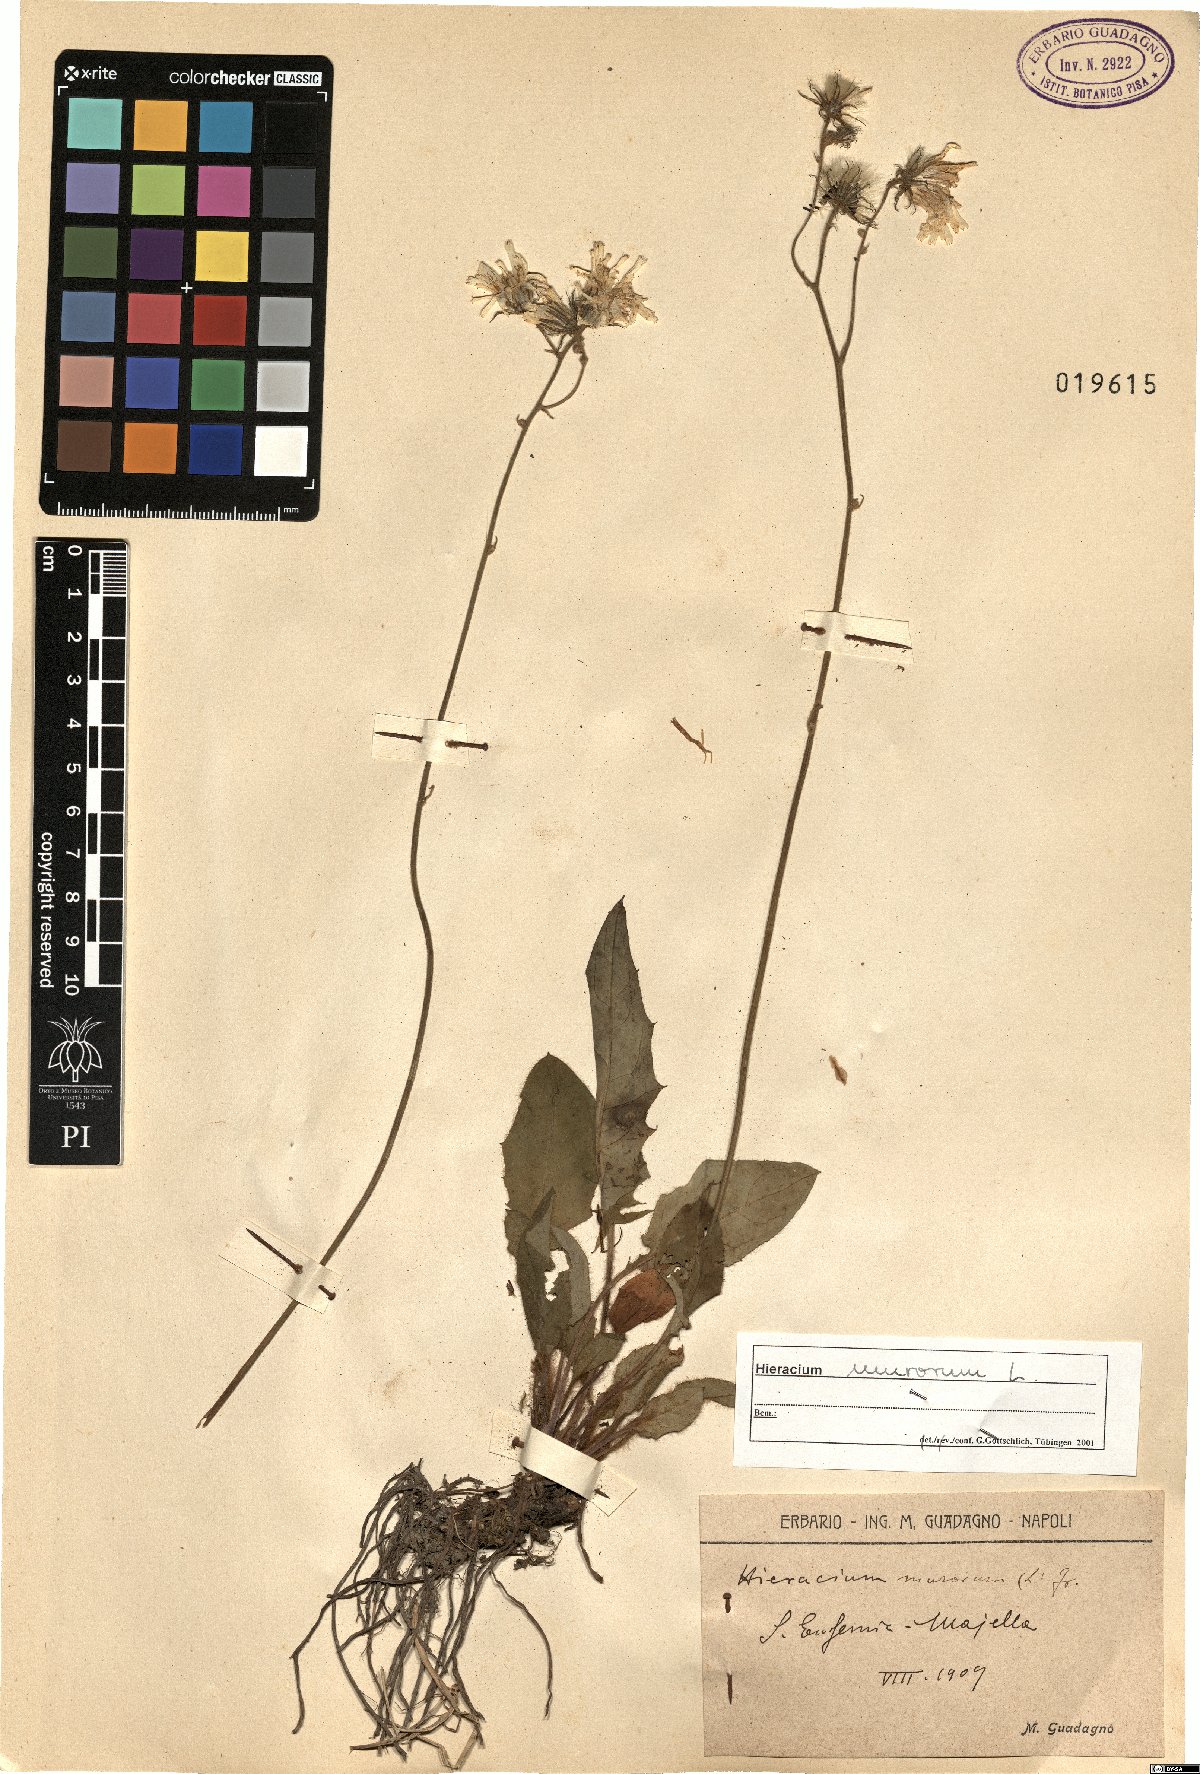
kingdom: Plantae
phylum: Tracheophyta
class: Magnoliopsida
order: Asterales
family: Asteraceae
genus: Hieracium
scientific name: Hieracium murorum
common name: Wall hawkweed
